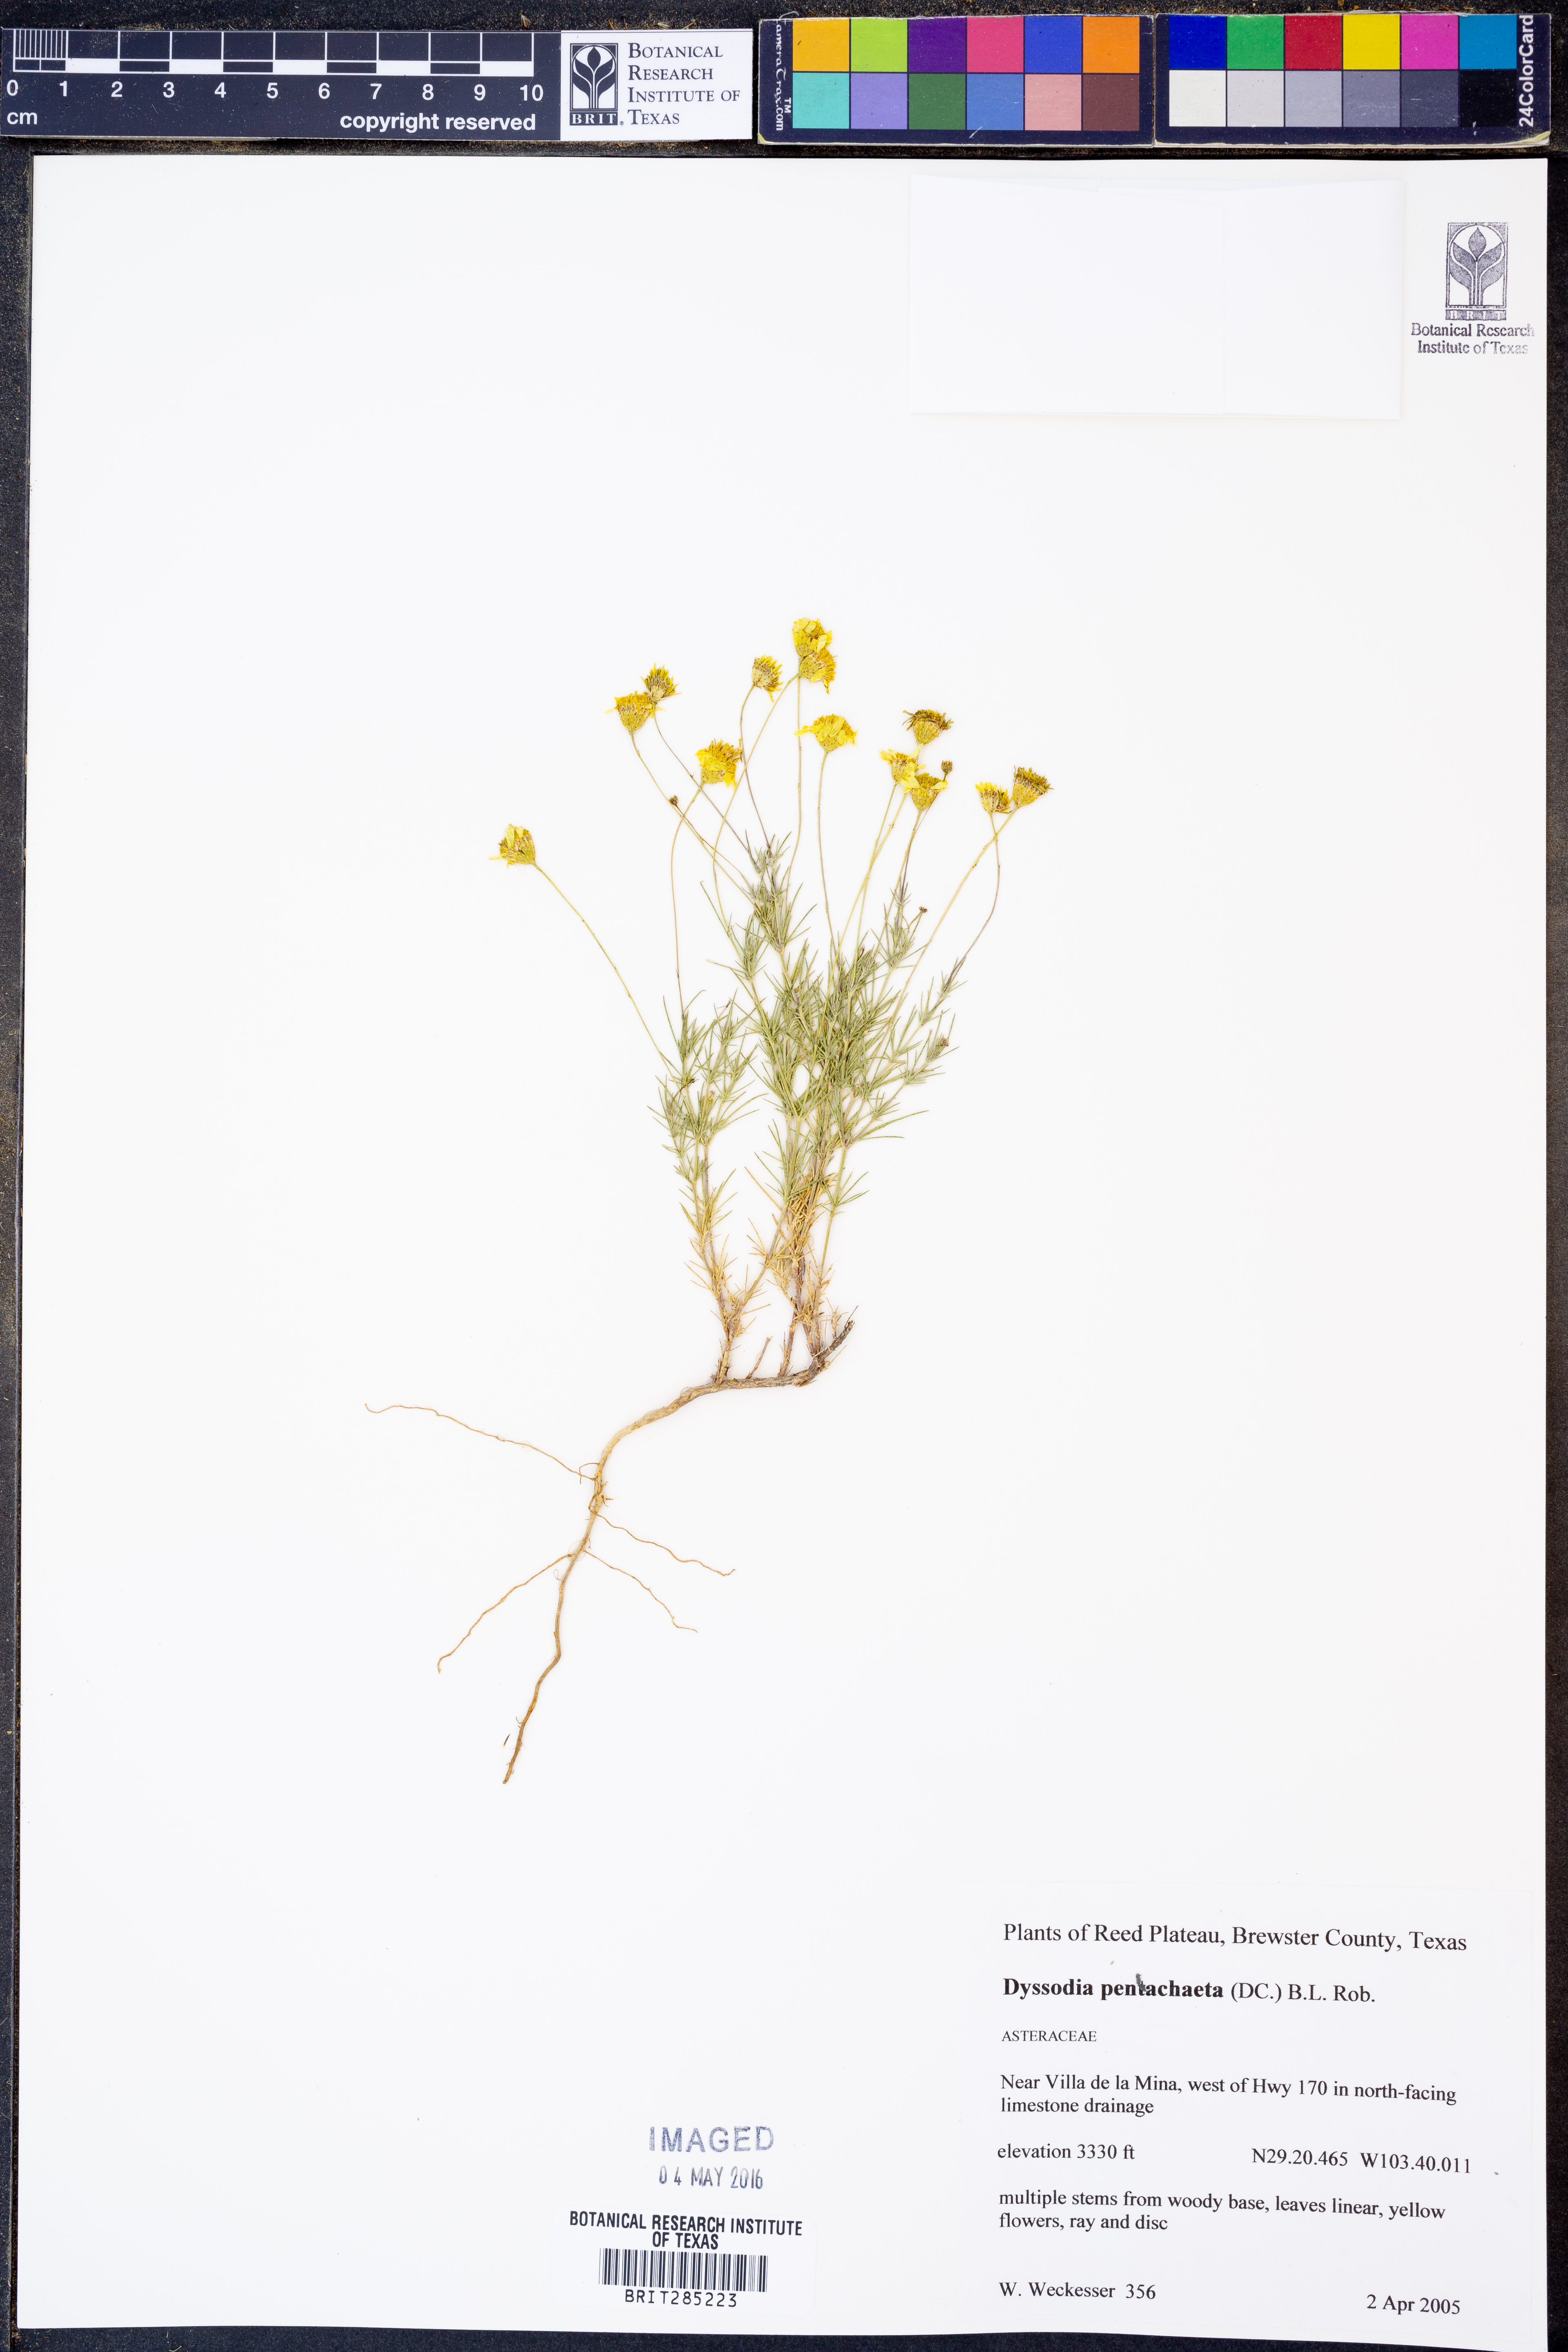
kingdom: Plantae
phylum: Tracheophyta
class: Magnoliopsida
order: Asterales
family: Asteraceae
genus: Thymophylla
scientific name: Thymophylla pentachaeta
